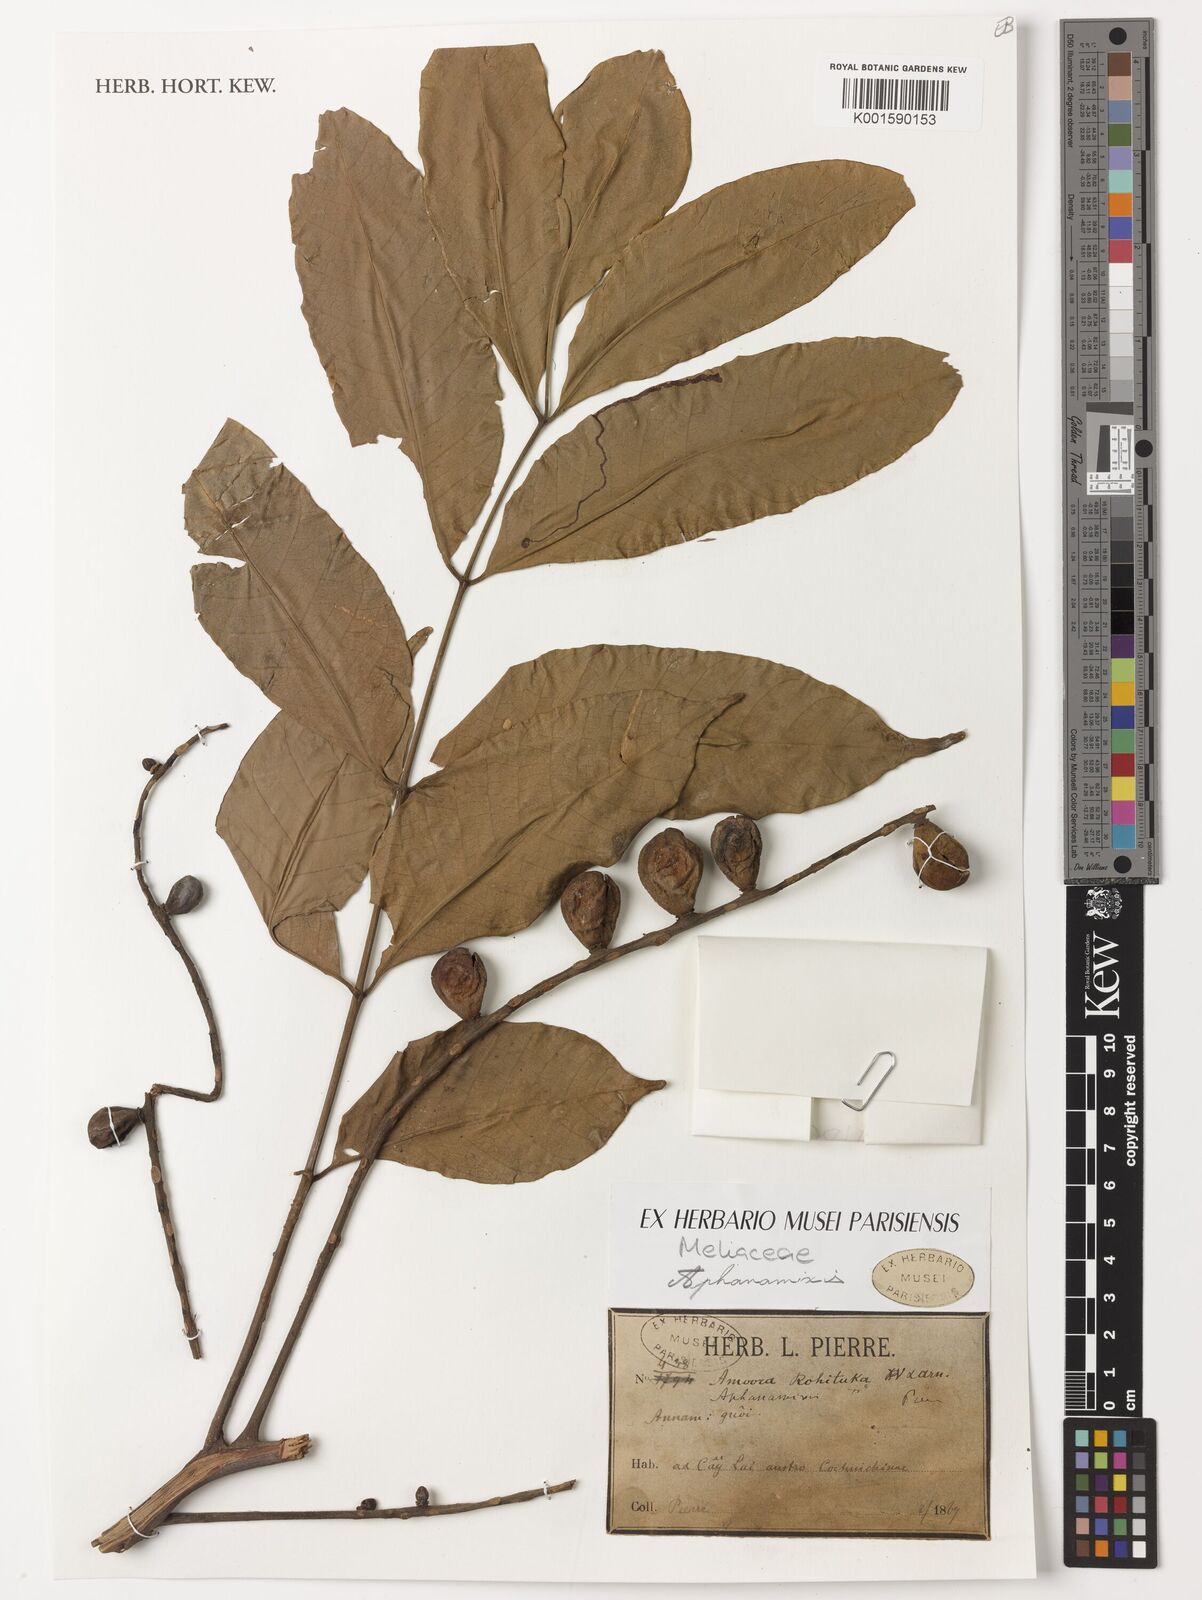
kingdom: Plantae
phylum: Tracheophyta
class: Magnoliopsida
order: Sapindales
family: Meliaceae
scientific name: Meliaceae
